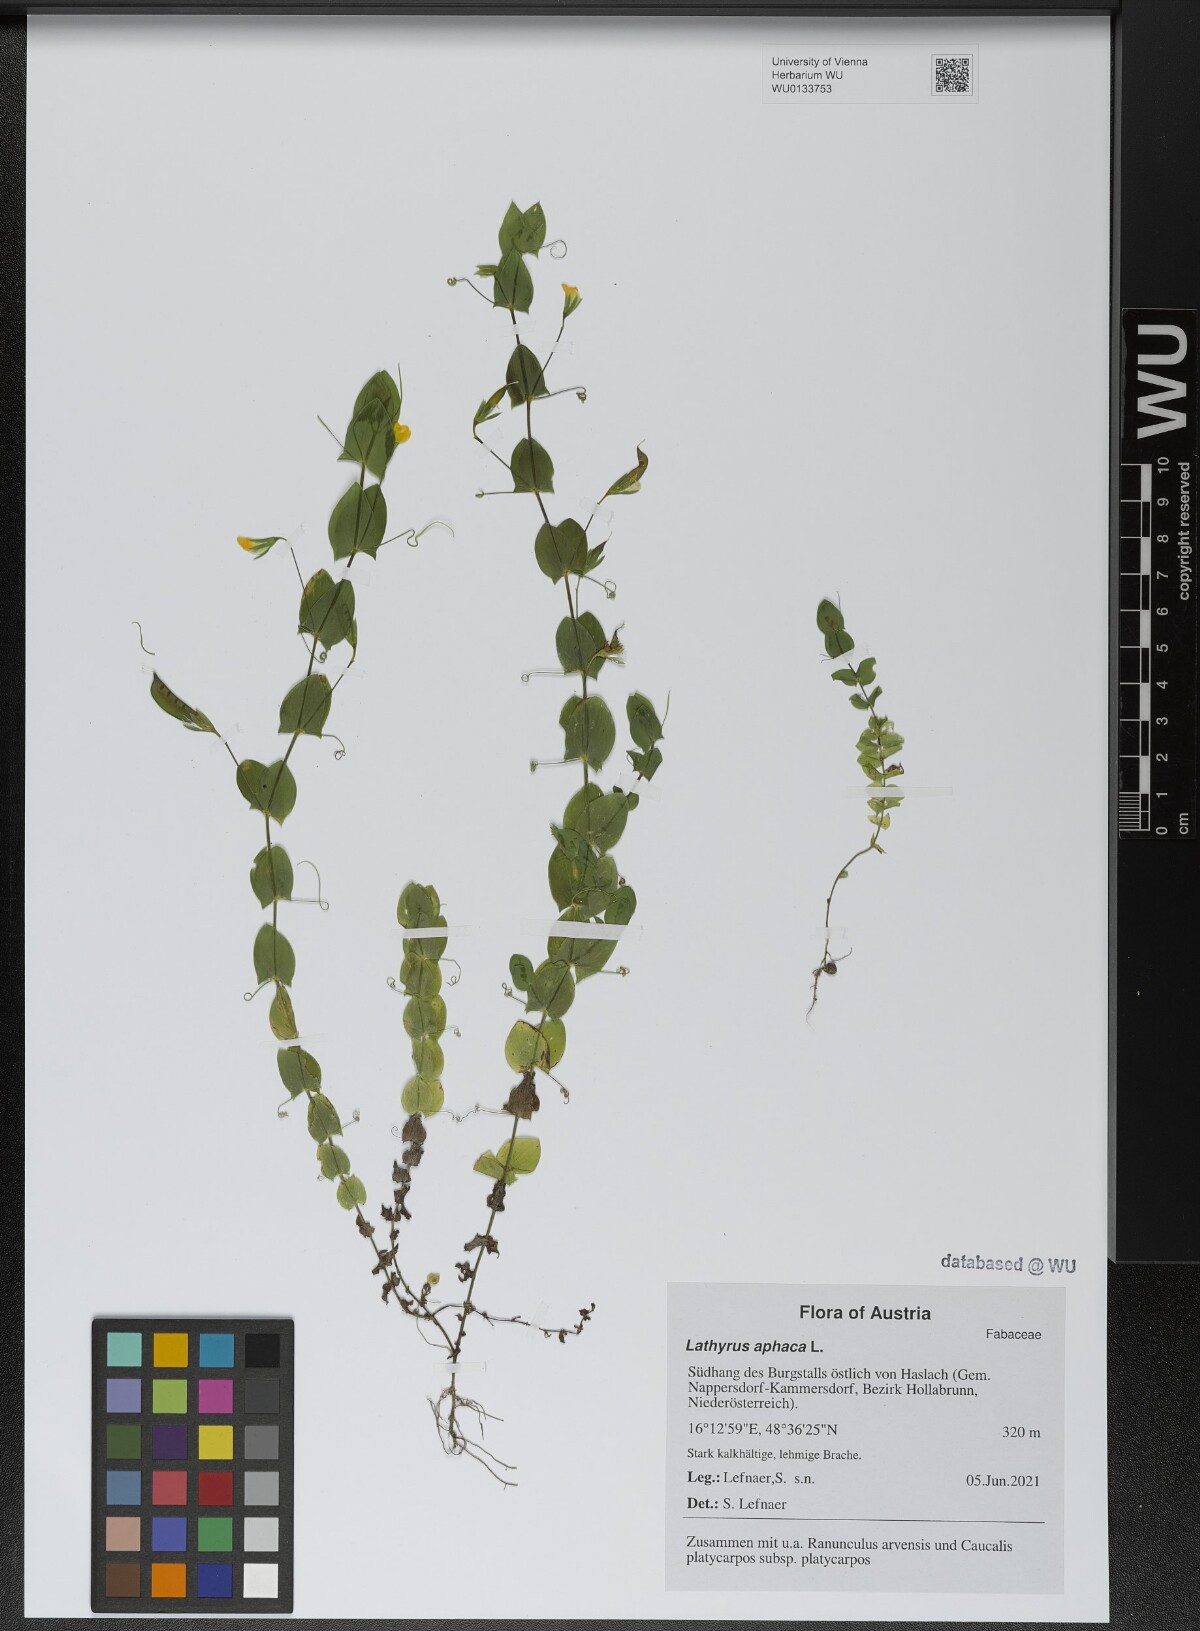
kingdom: Plantae
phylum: Tracheophyta
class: Magnoliopsida
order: Fabales
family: Fabaceae
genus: Lathyrus
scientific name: Lathyrus aphaca
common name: Yellow vetchling
